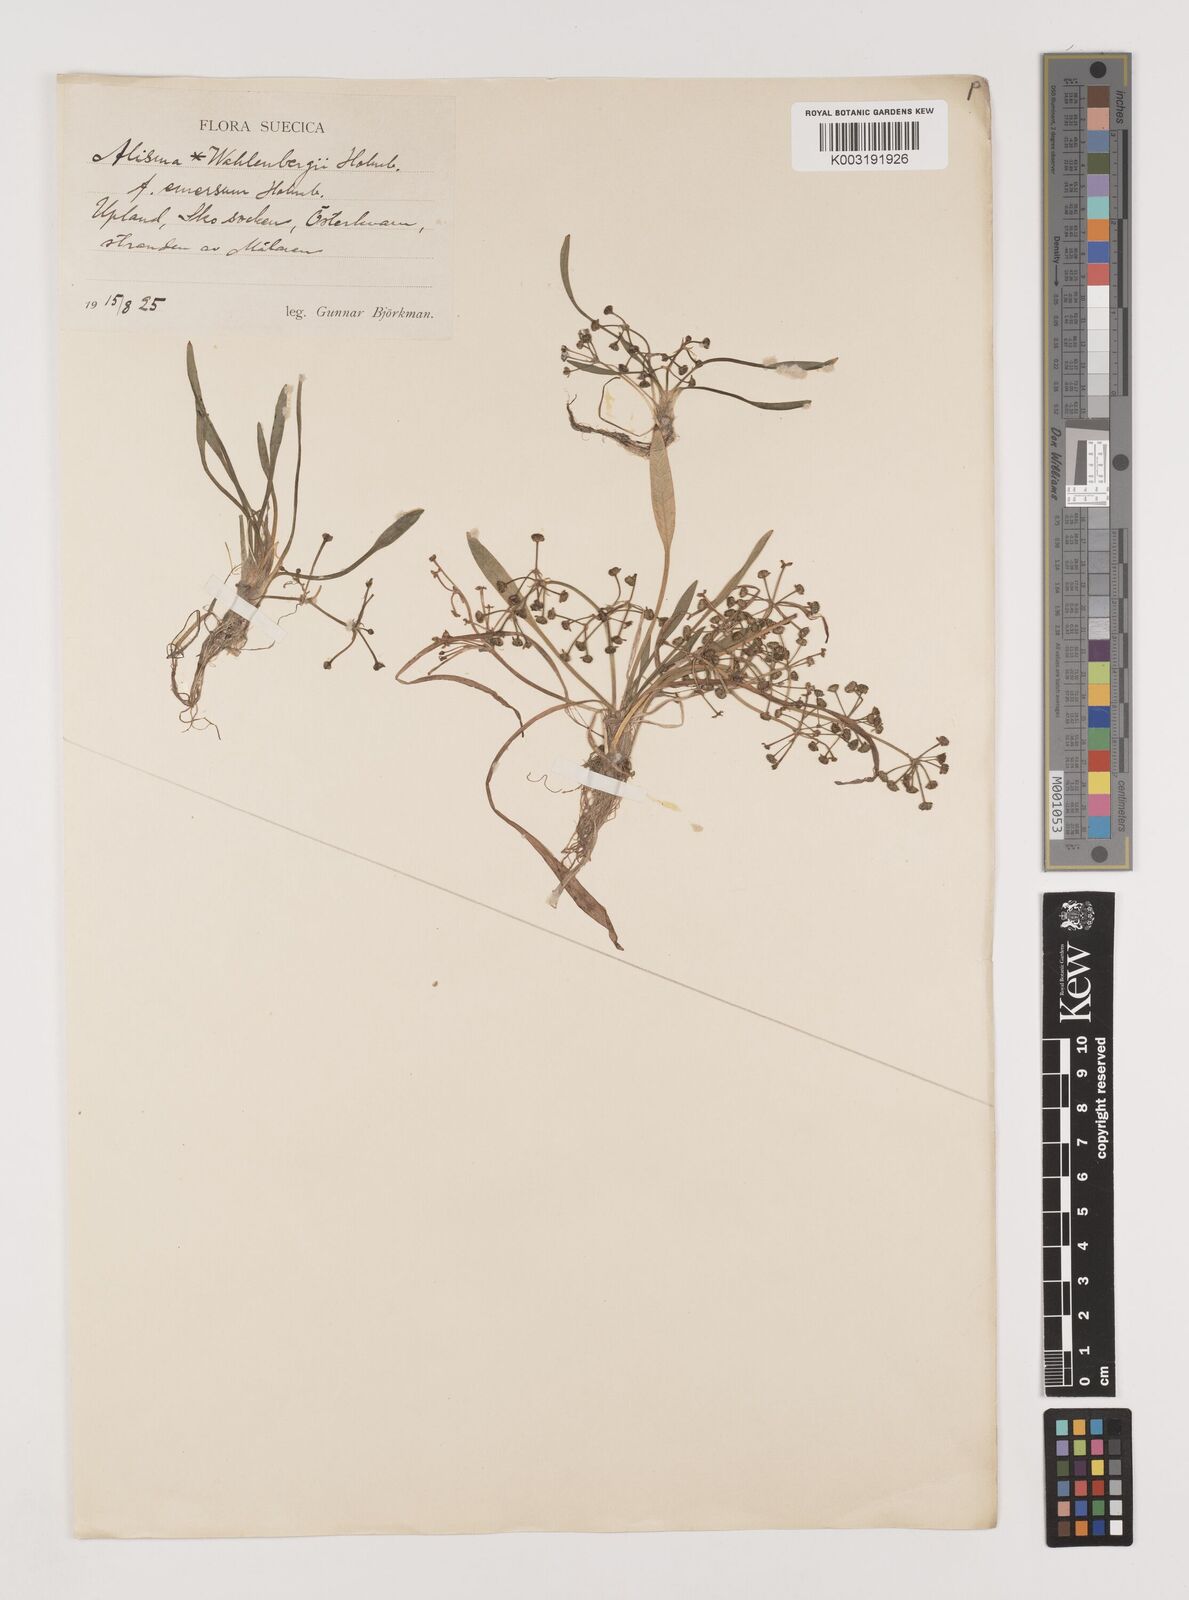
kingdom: Plantae
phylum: Tracheophyta
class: Liliopsida
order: Alismatales
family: Alismataceae
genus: Alisma
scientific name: Alisma wahlenbergii
